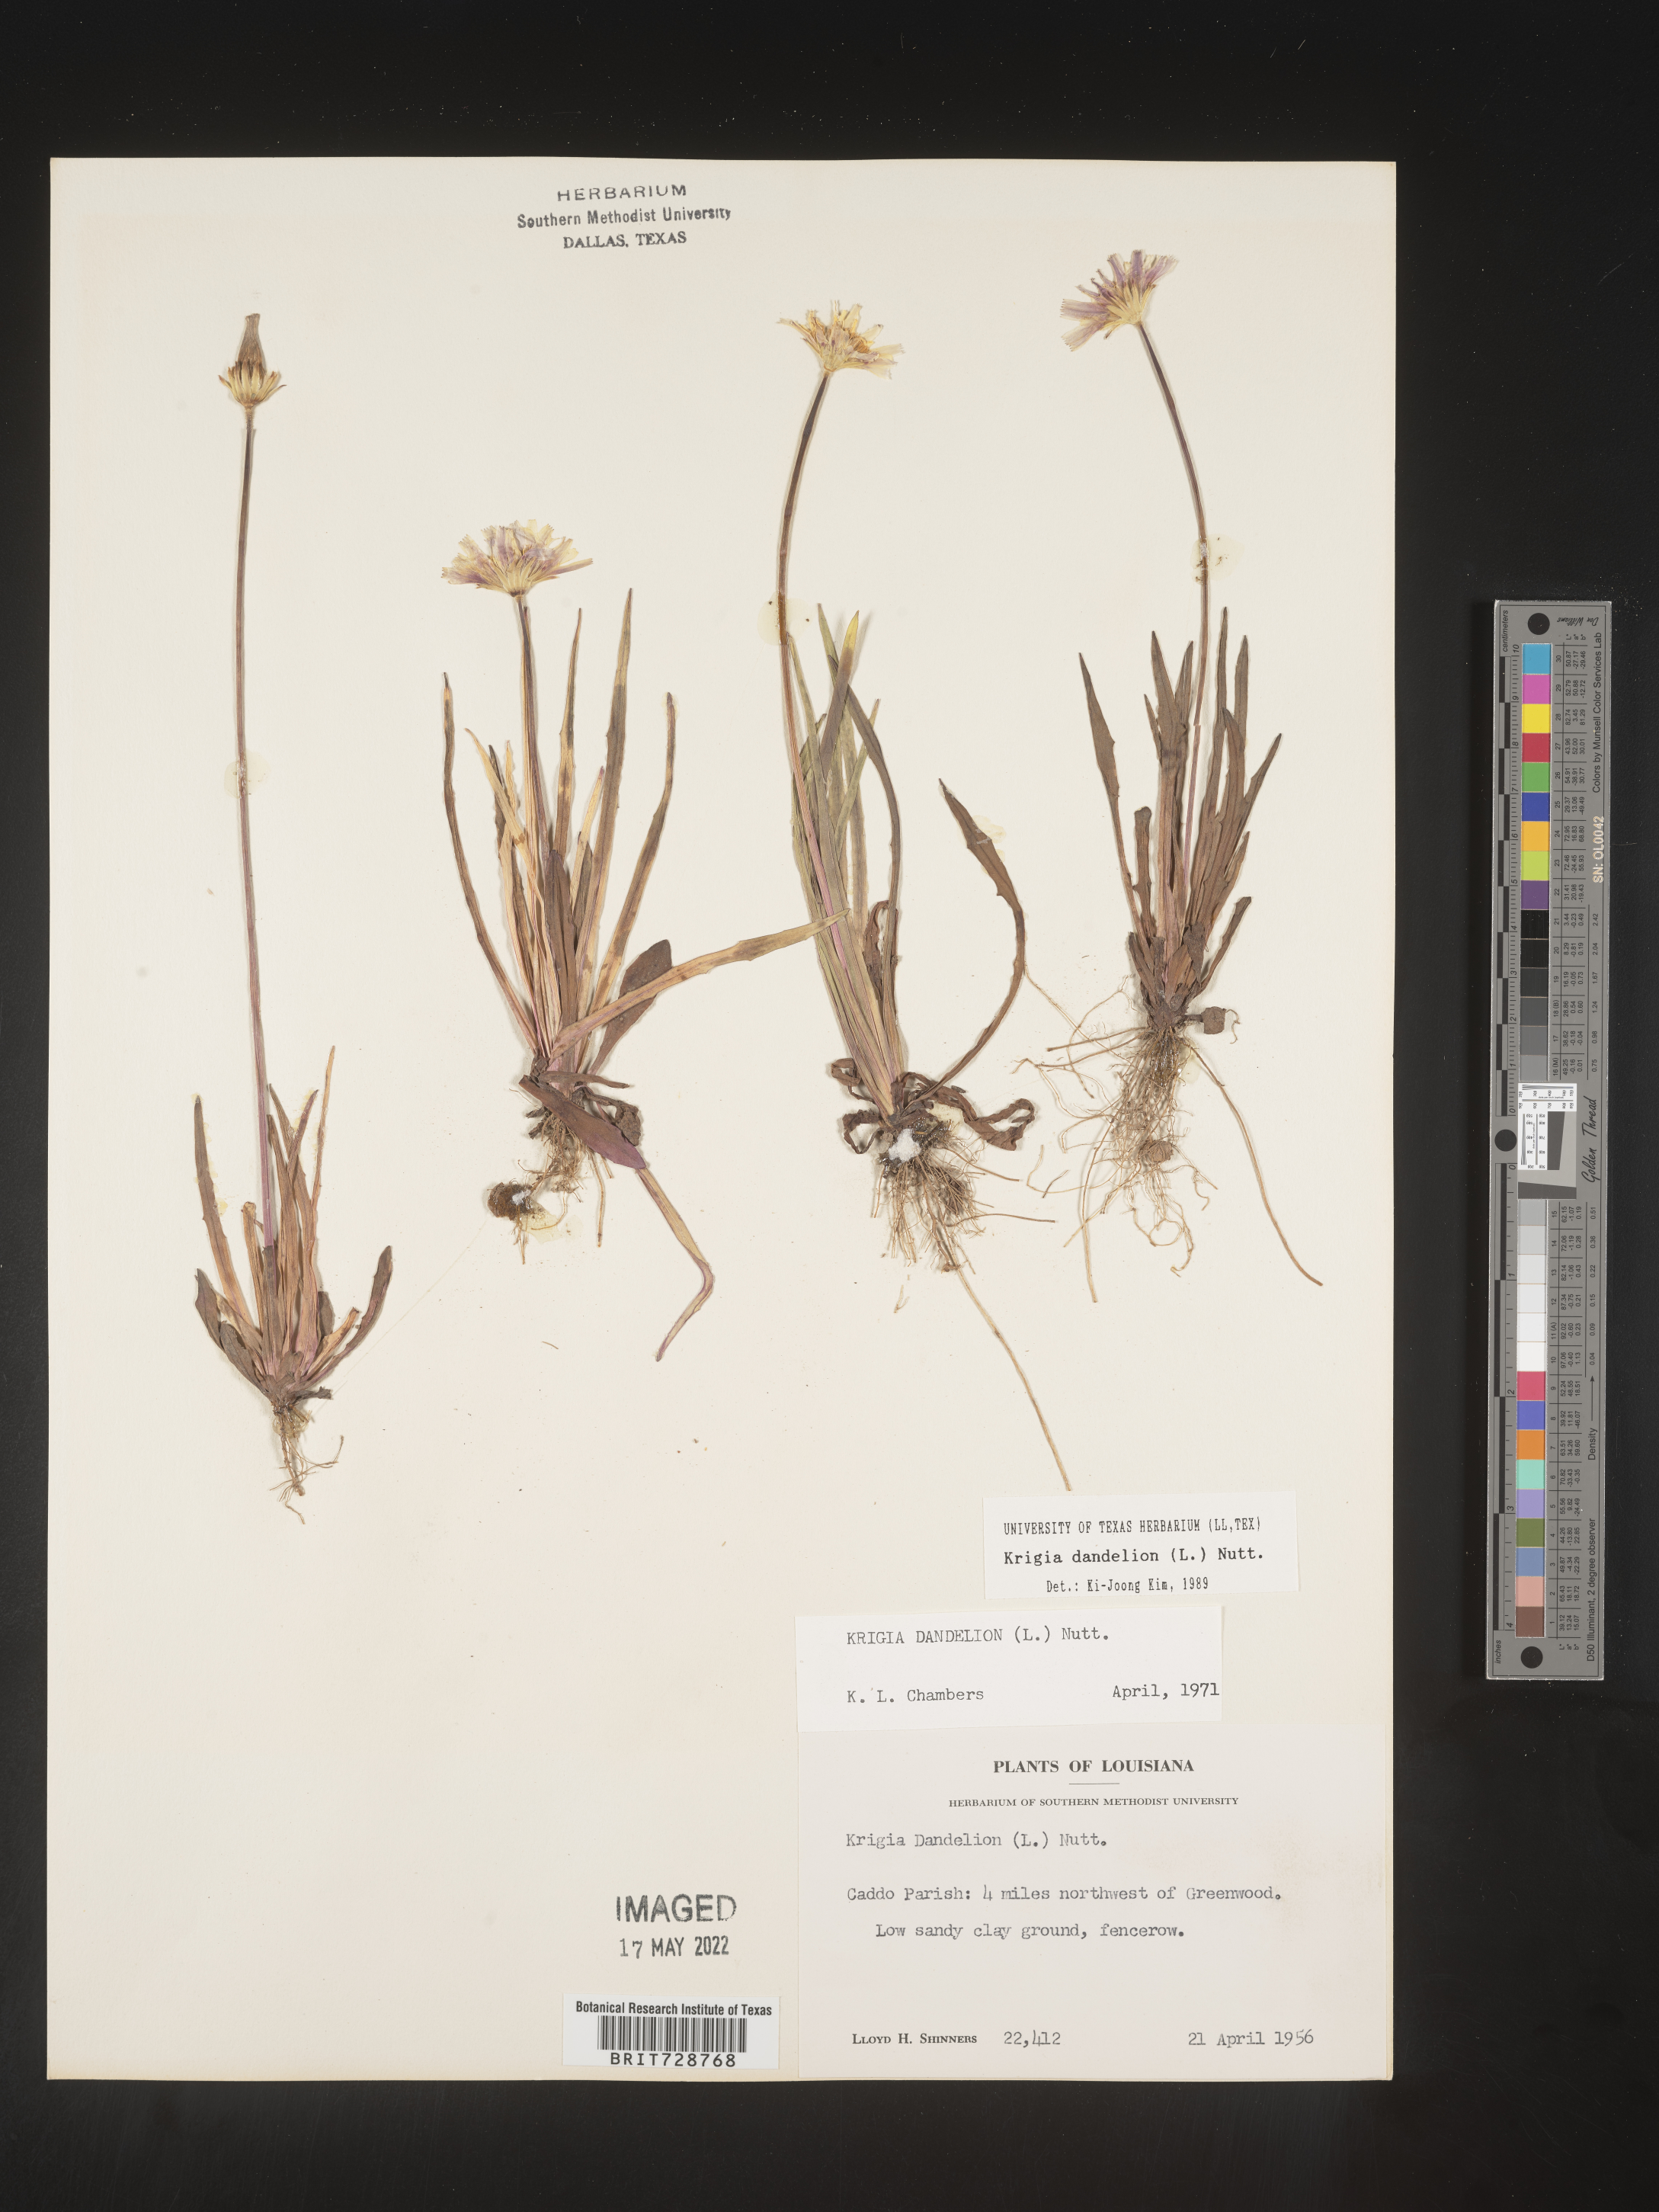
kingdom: Plantae
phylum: Tracheophyta
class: Magnoliopsida
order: Asterales
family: Asteraceae
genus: Krigia
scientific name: Krigia dandelion
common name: Colonial dwarf-dandelion
